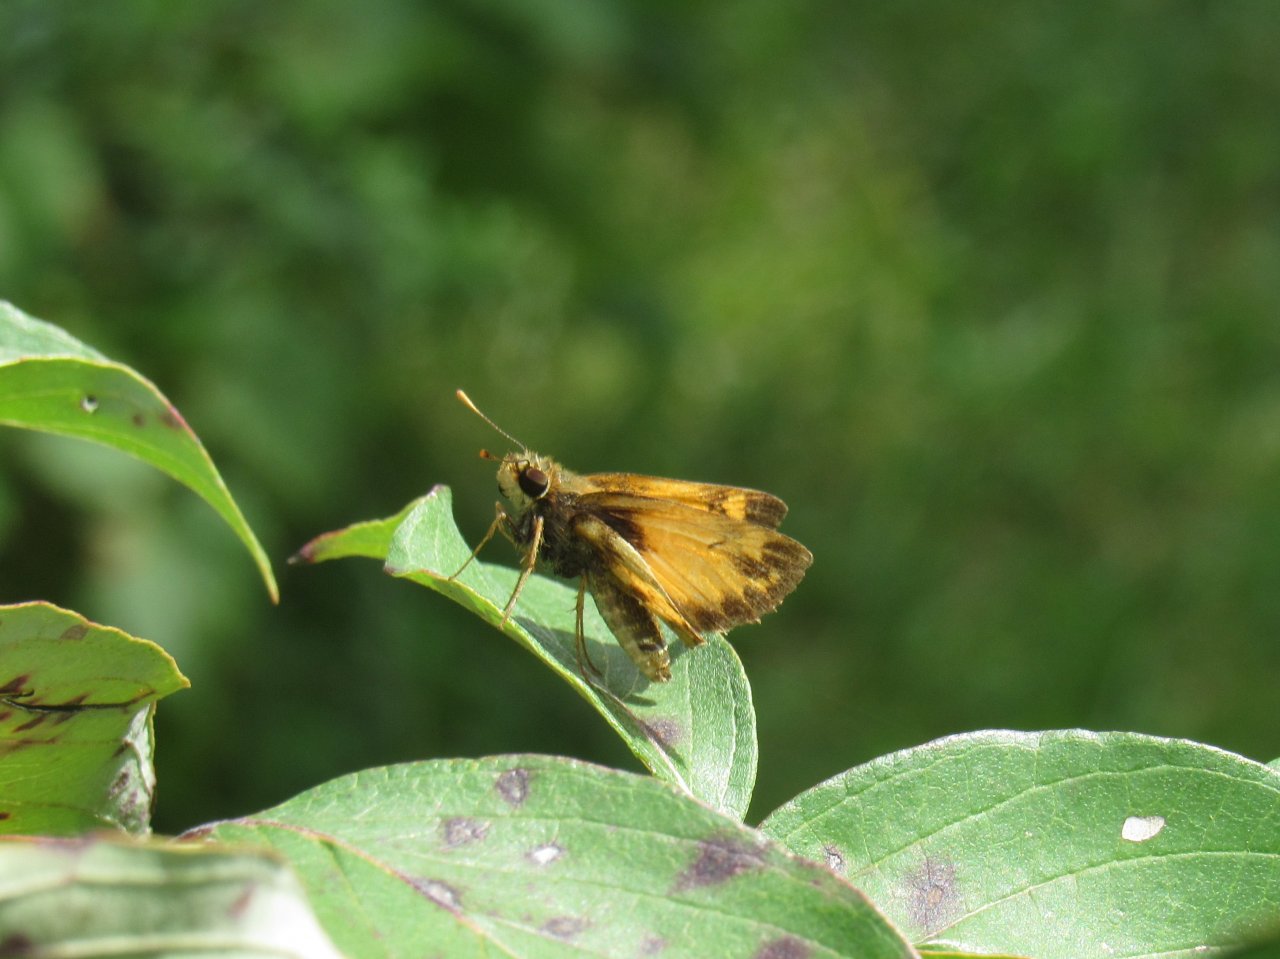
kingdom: Animalia
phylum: Arthropoda
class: Insecta
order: Lepidoptera
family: Hesperiidae
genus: Lon
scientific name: Lon zabulon
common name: Zabulon Skipper
